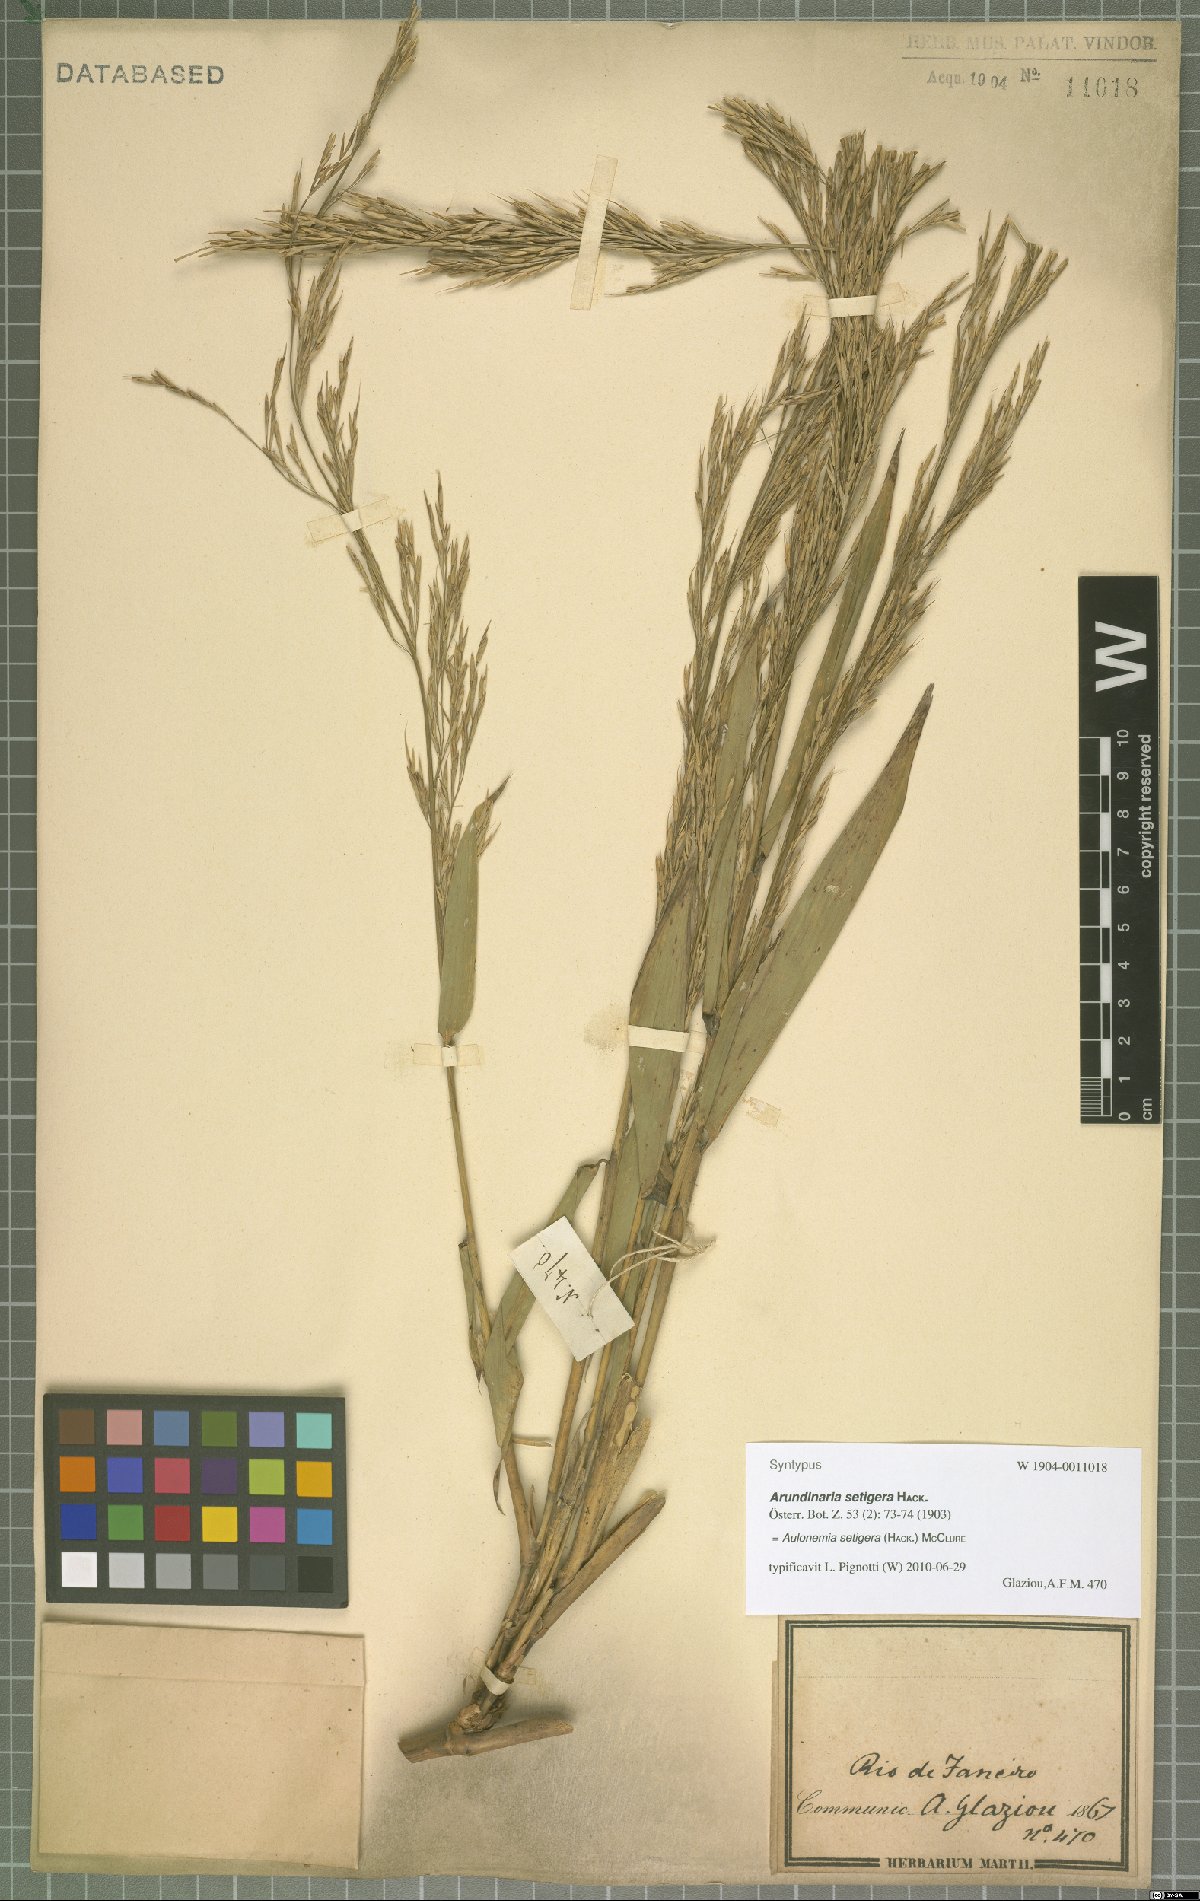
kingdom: Plantae
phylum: Tracheophyta
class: Liliopsida
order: Poales
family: Poaceae
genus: Aulonemia
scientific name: Aulonemia setigera
